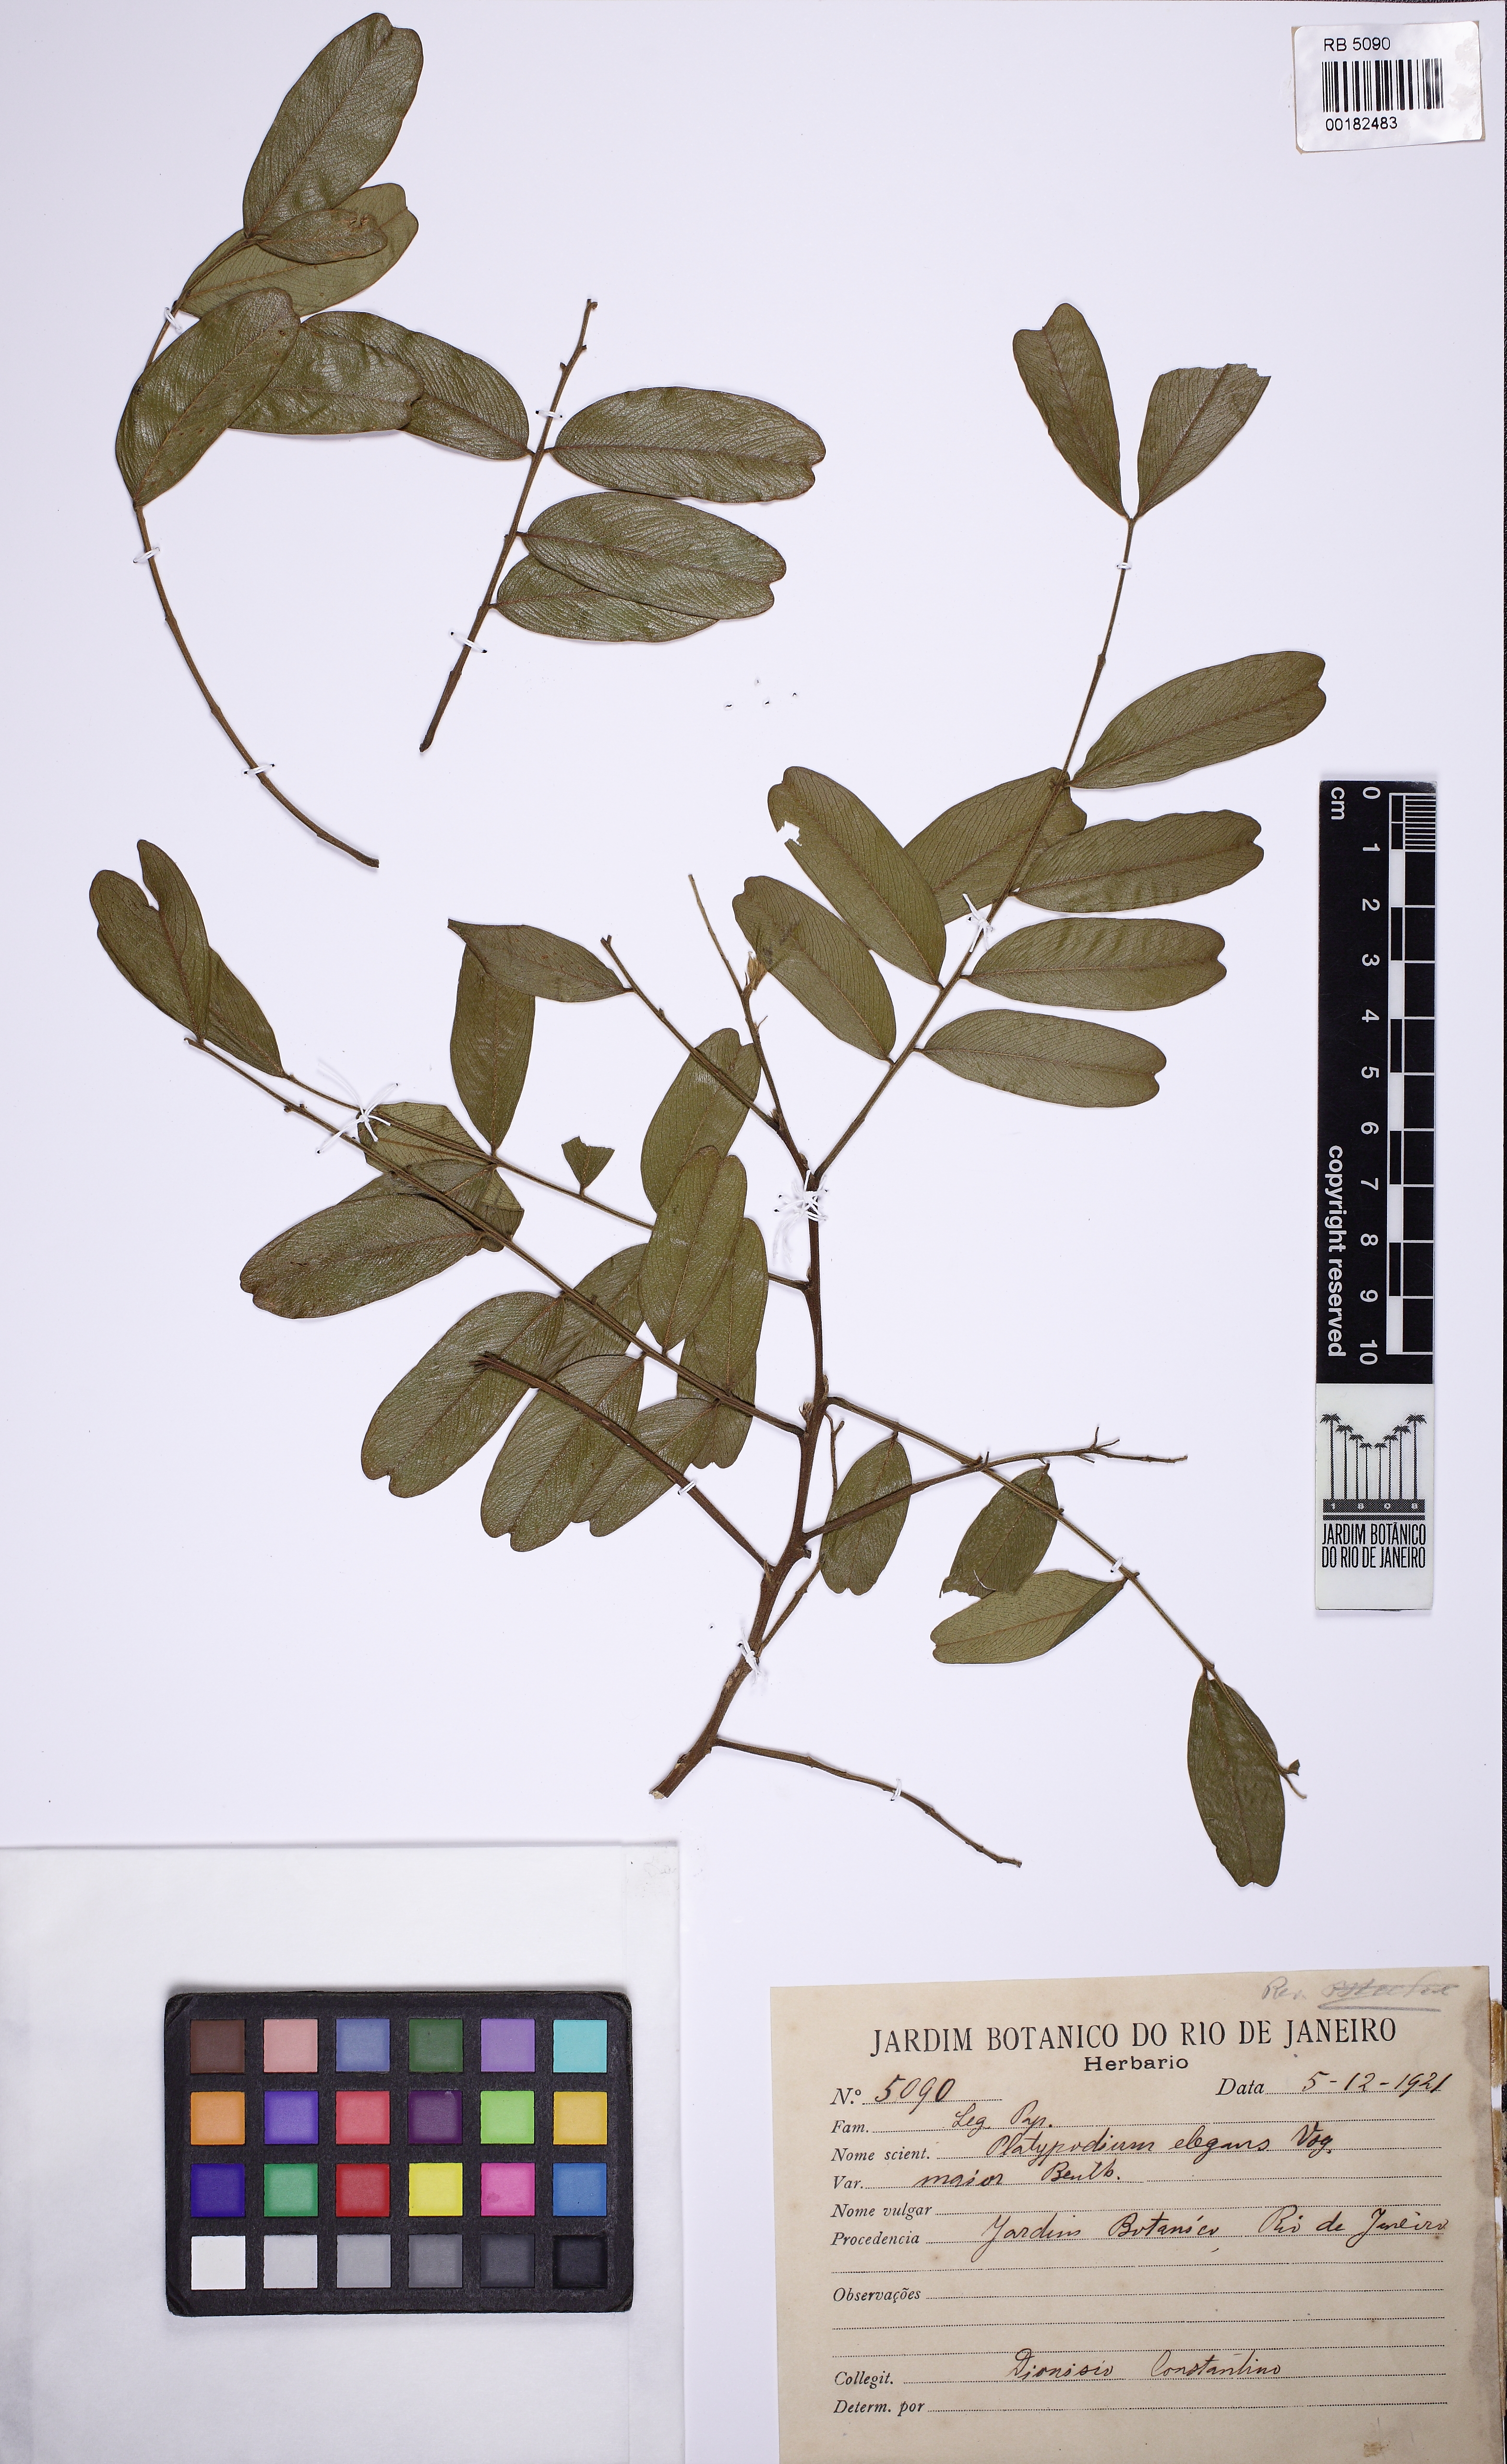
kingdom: Plantae
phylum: Tracheophyta
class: Magnoliopsida
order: Fabales
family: Fabaceae
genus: Platypodium
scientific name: Platypodium elegans
